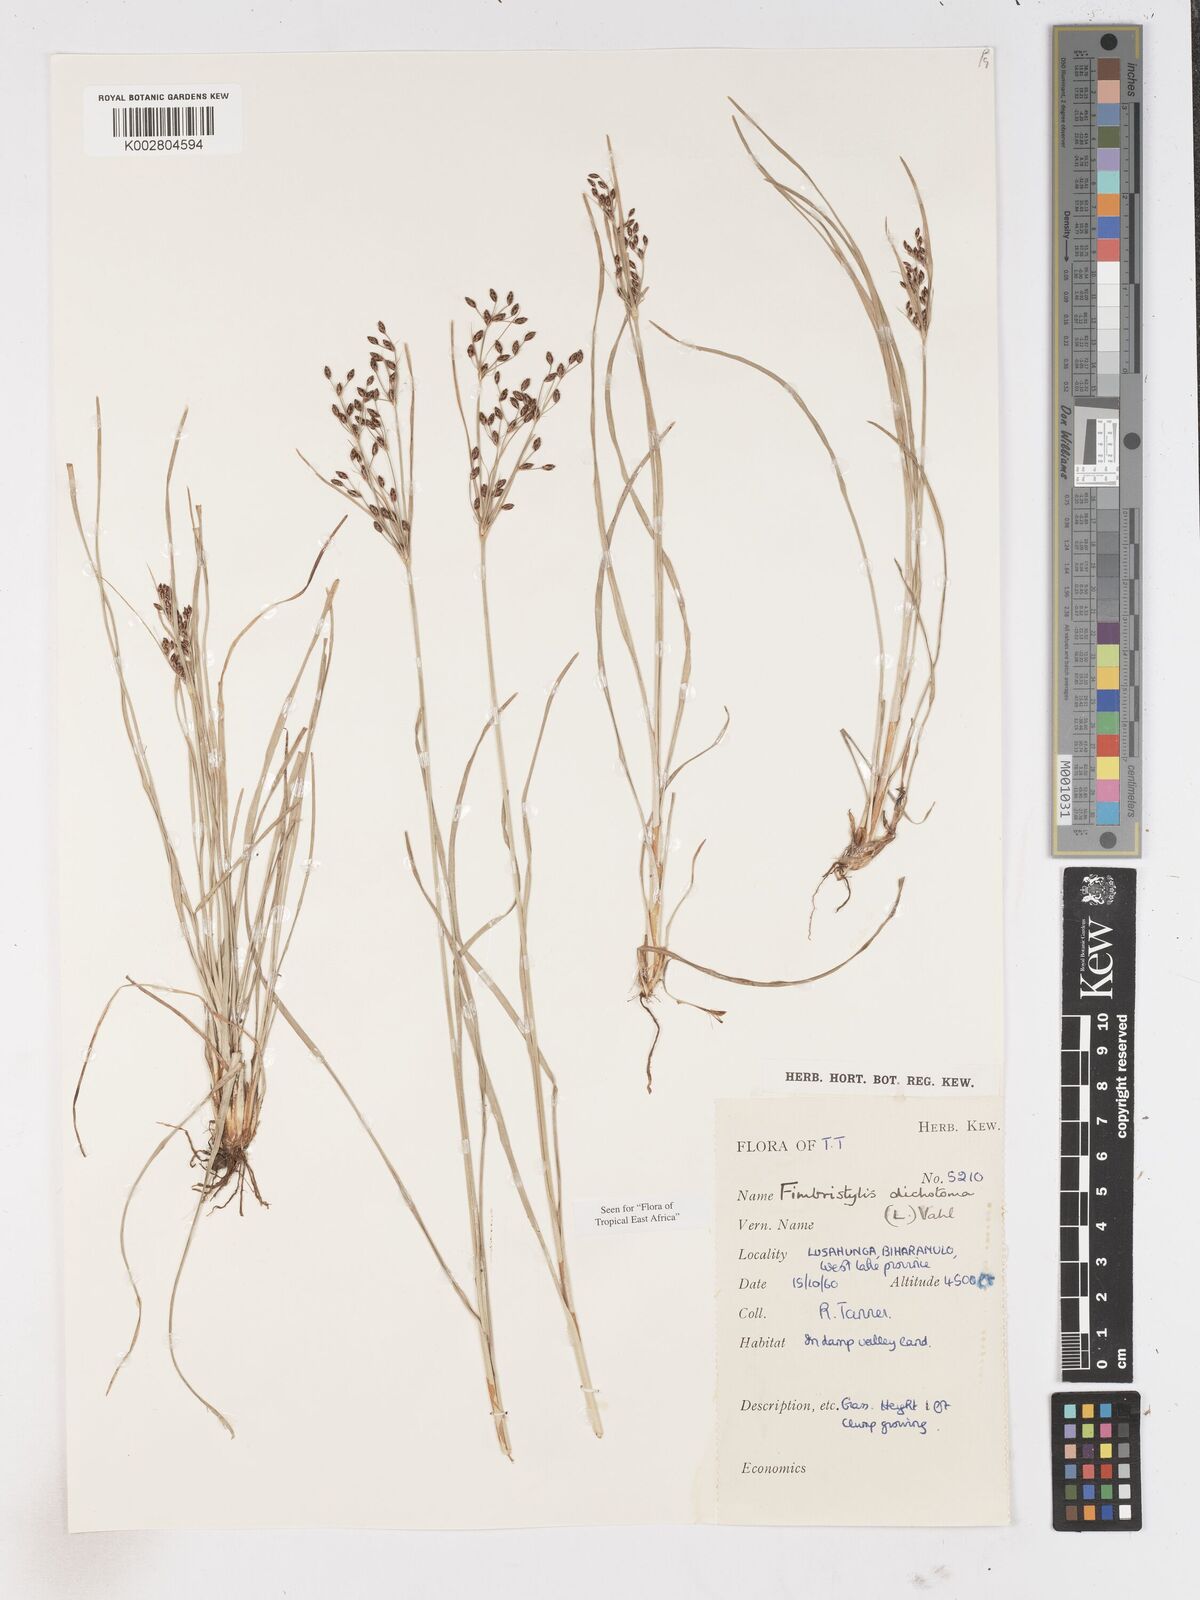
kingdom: Plantae
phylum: Tracheophyta
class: Liliopsida
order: Poales
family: Cyperaceae
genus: Fimbristylis
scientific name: Fimbristylis dichotoma
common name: Forked fimbry
